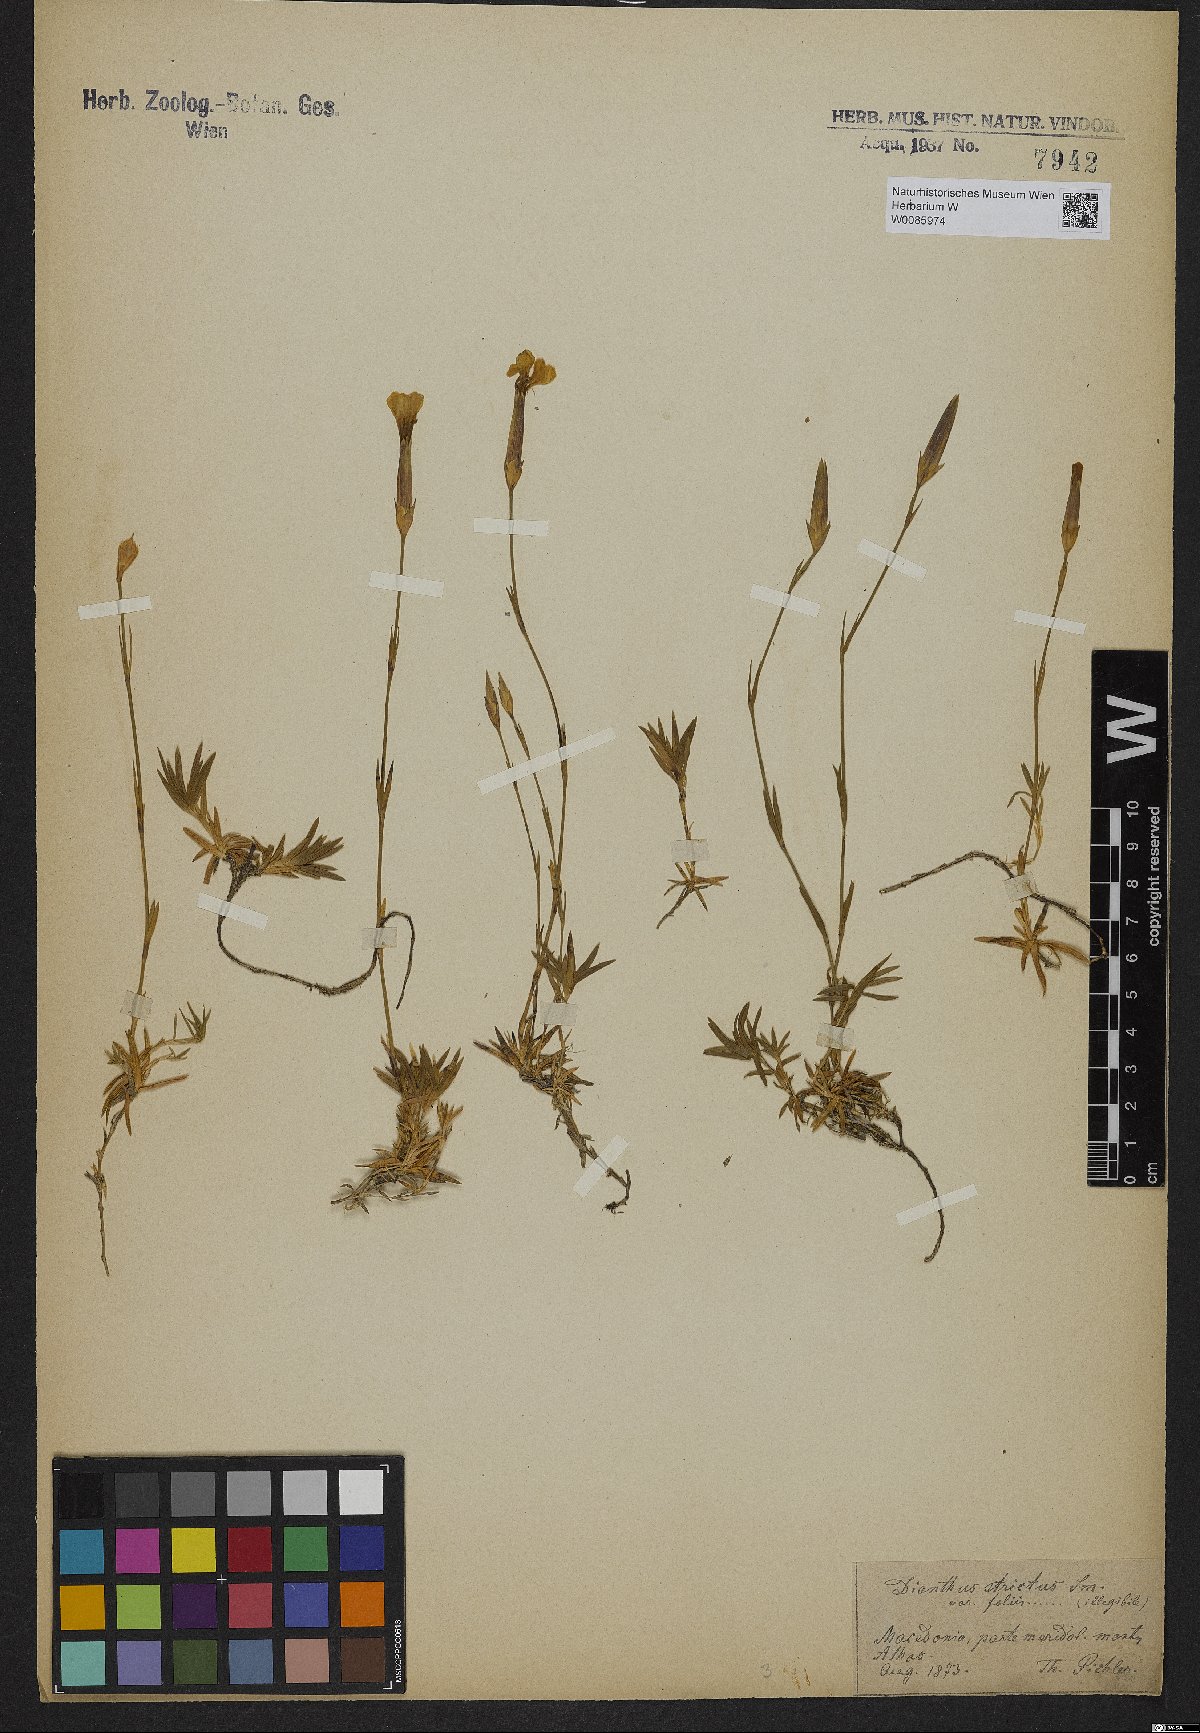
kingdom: Plantae
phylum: Tracheophyta
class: Magnoliopsida
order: Caryophyllales
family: Caryophyllaceae
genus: Dianthus
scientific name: Dianthus petraeus
